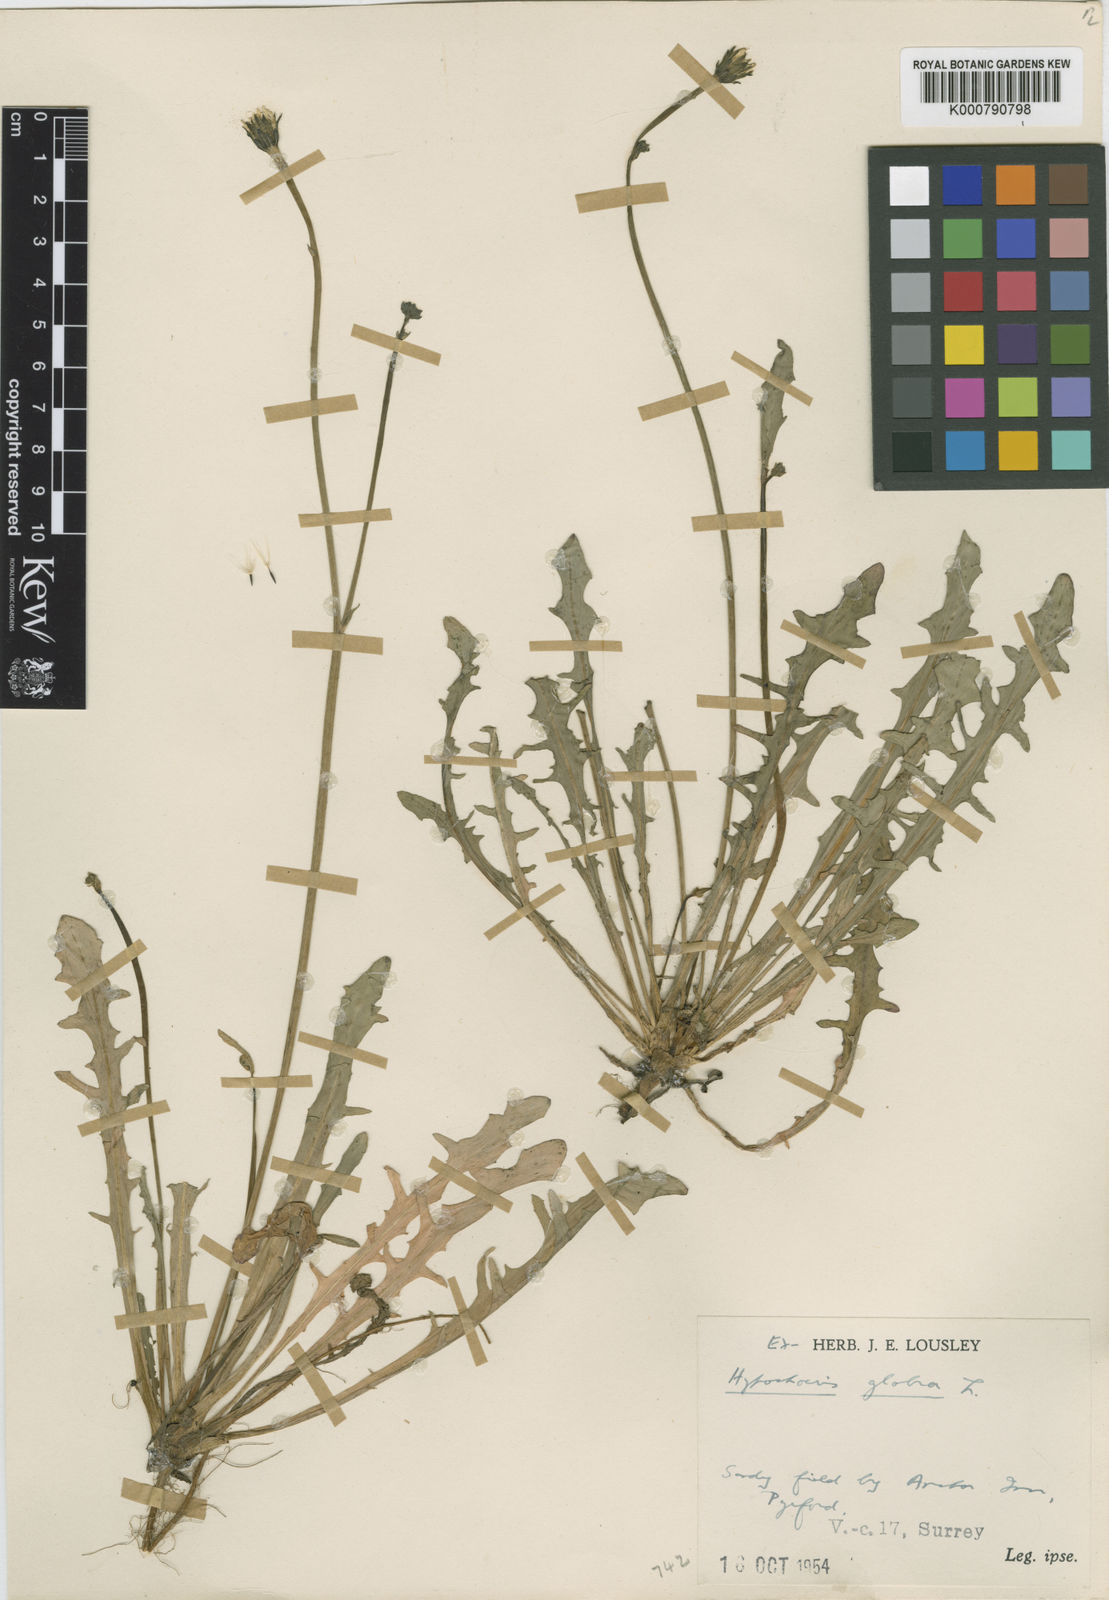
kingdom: Plantae
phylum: Tracheophyta
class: Magnoliopsida
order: Asterales
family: Asteraceae
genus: Hypochaeris
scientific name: Hypochaeris glabra
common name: Smooth catsear
